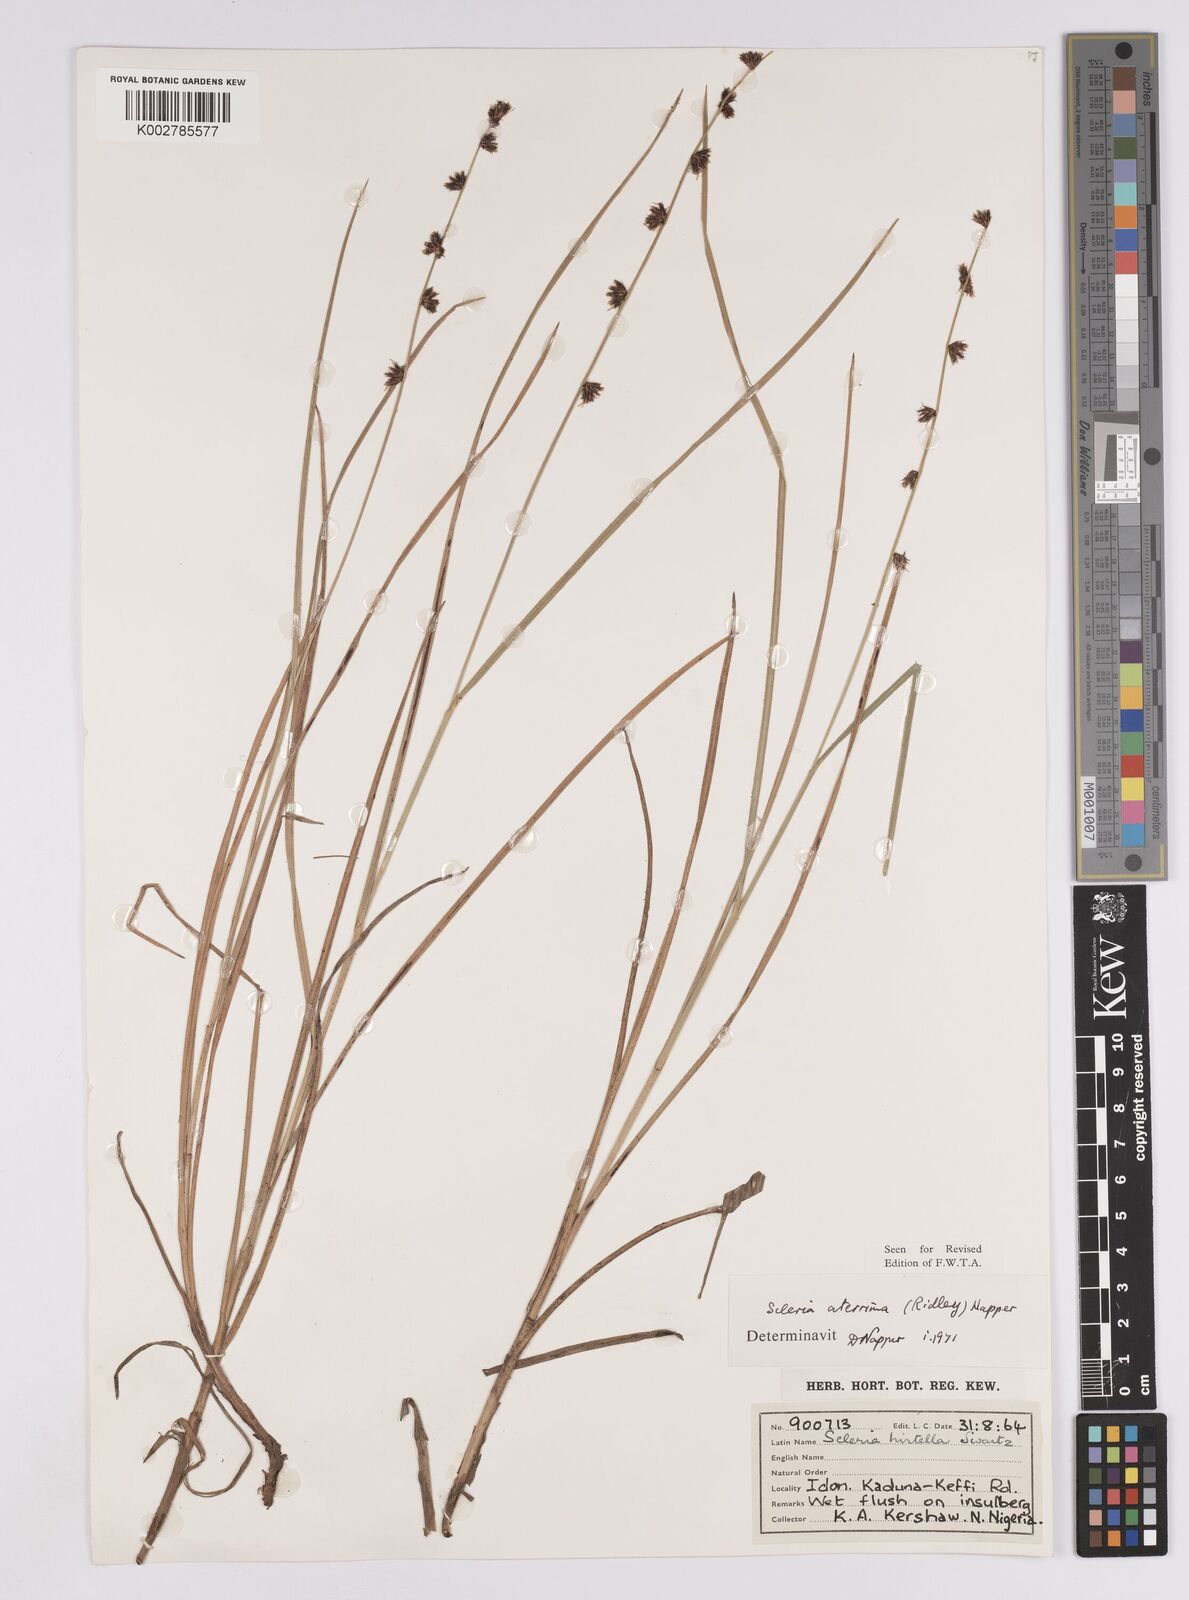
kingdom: Plantae
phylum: Tracheophyta
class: Liliopsida
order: Poales
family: Cyperaceae
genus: Scleria
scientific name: Scleria distans
